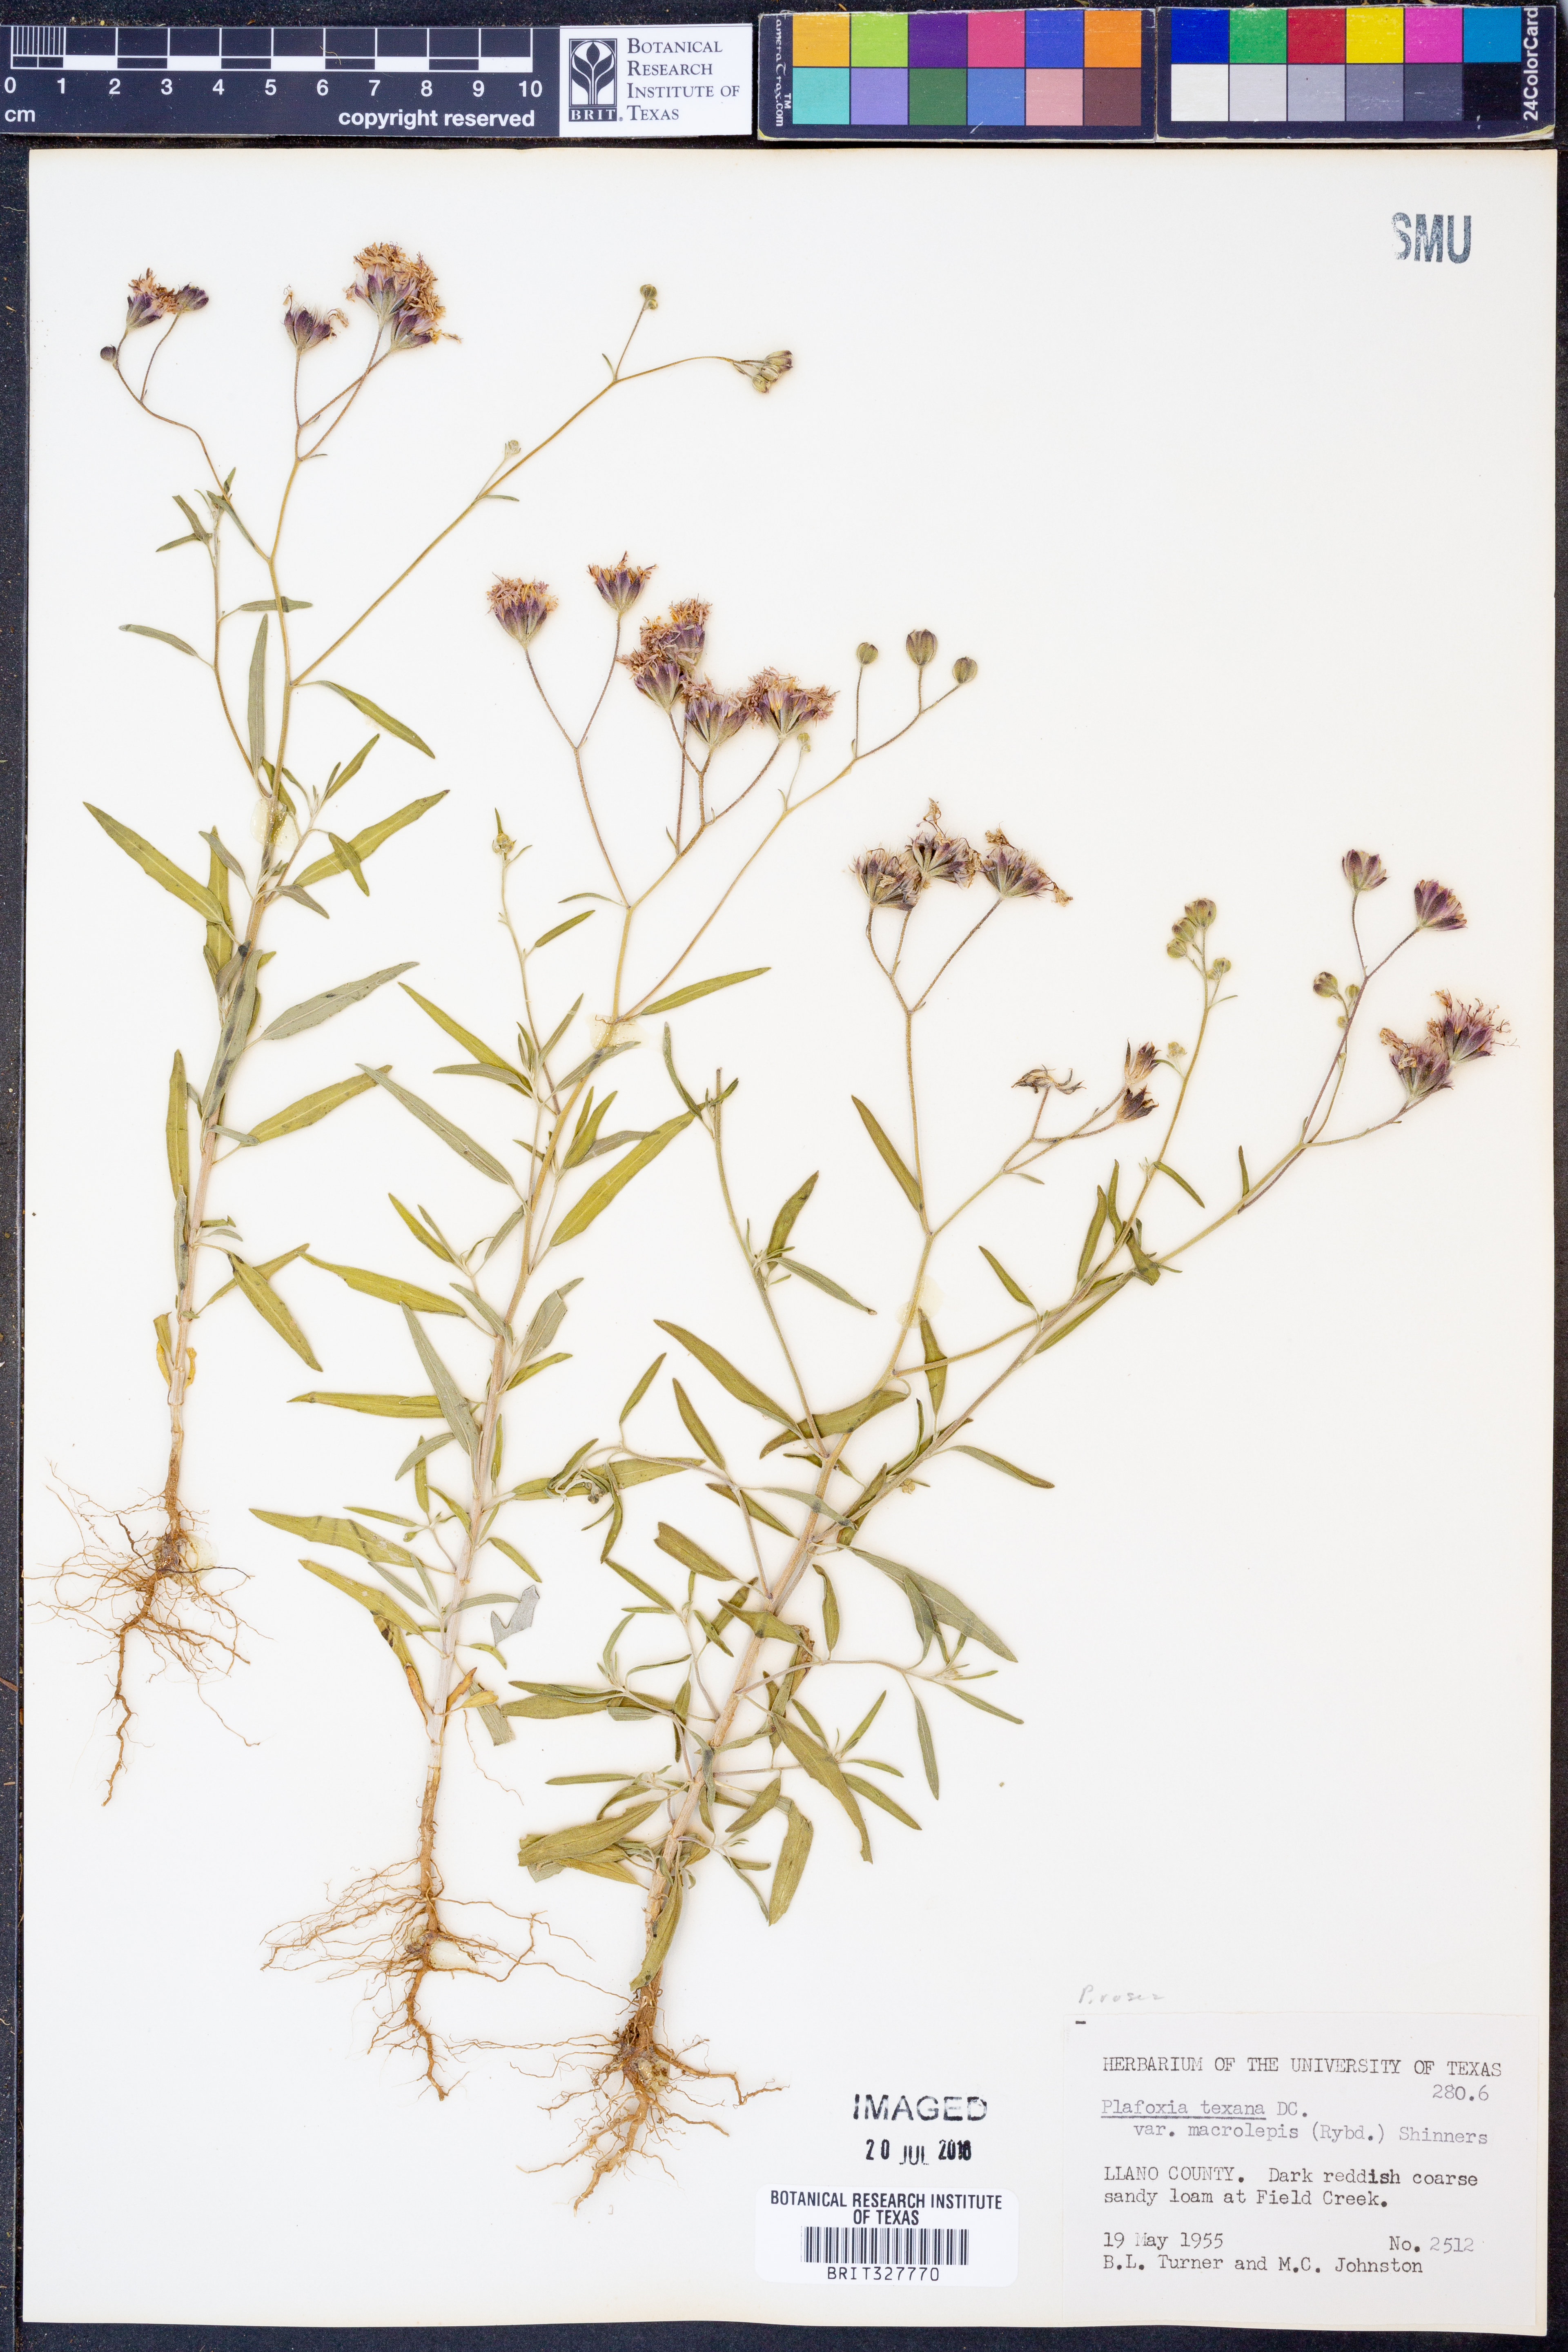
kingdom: Plantae
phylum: Tracheophyta
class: Magnoliopsida
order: Asterales
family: Asteraceae
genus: Palafoxia
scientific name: Palafoxia rosea
